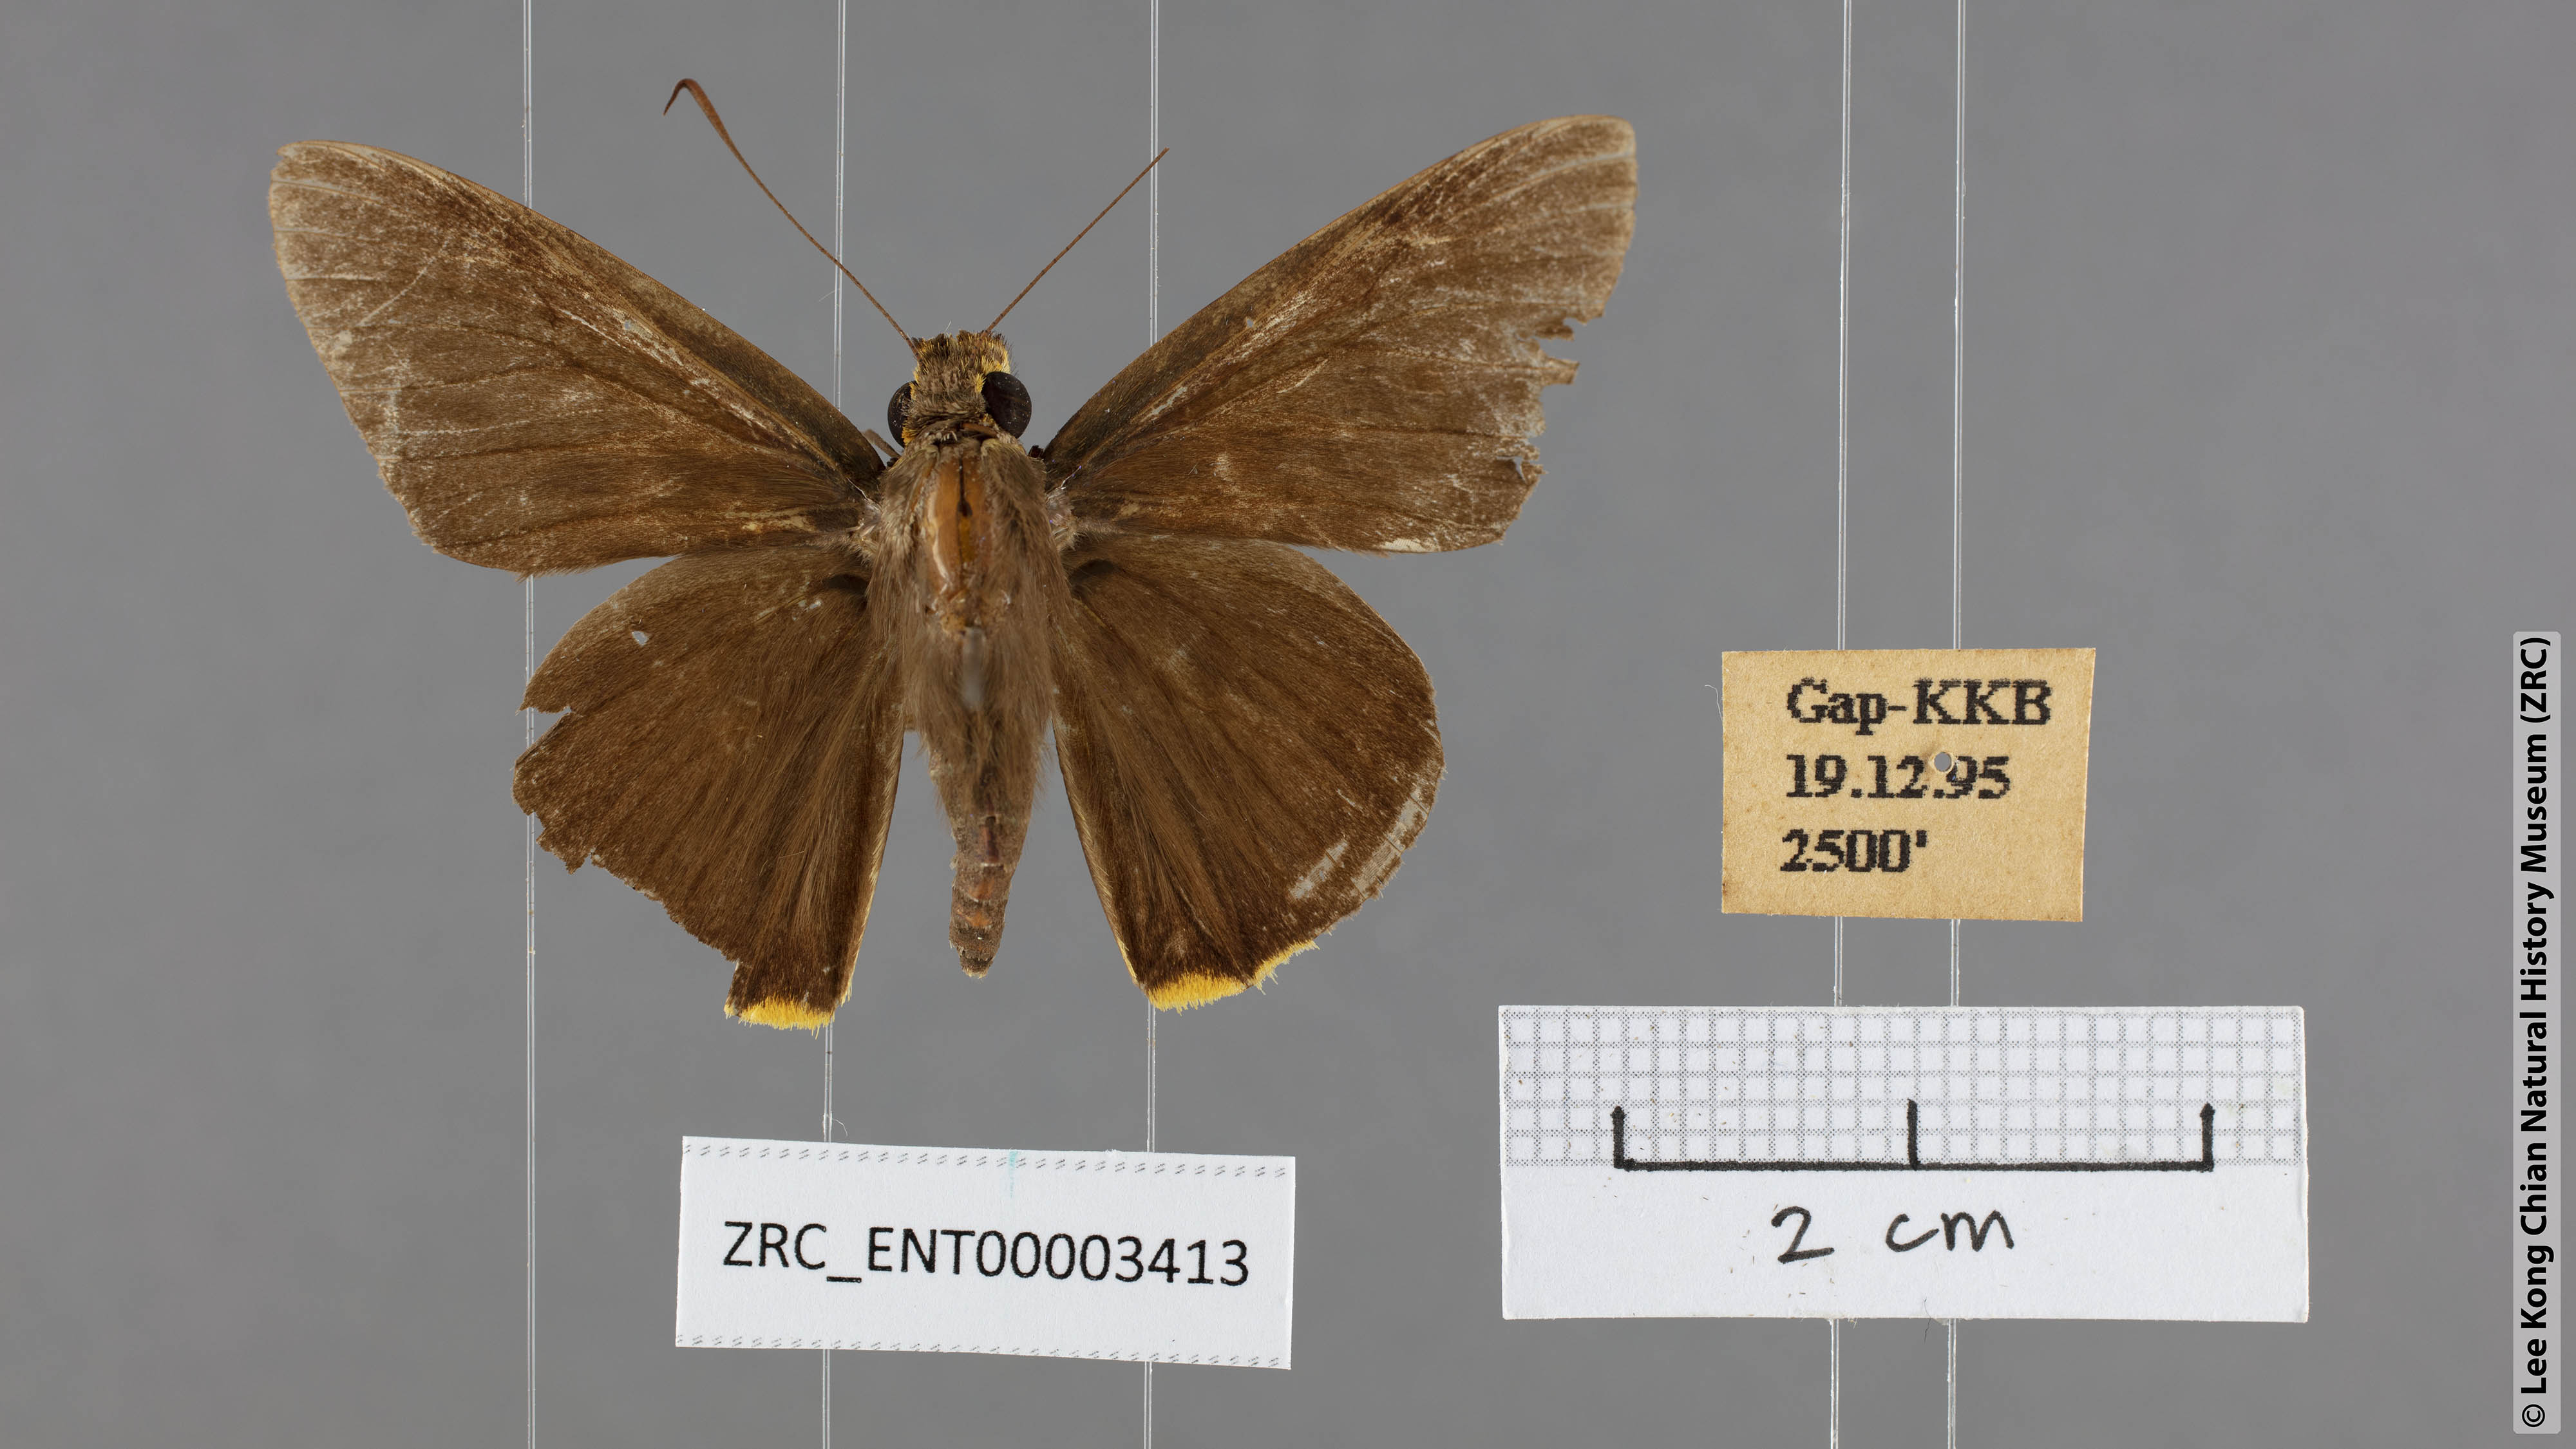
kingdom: Animalia
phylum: Arthropoda
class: Insecta
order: Lepidoptera
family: Hesperiidae
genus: Pirdana
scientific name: Pirdana distanti
